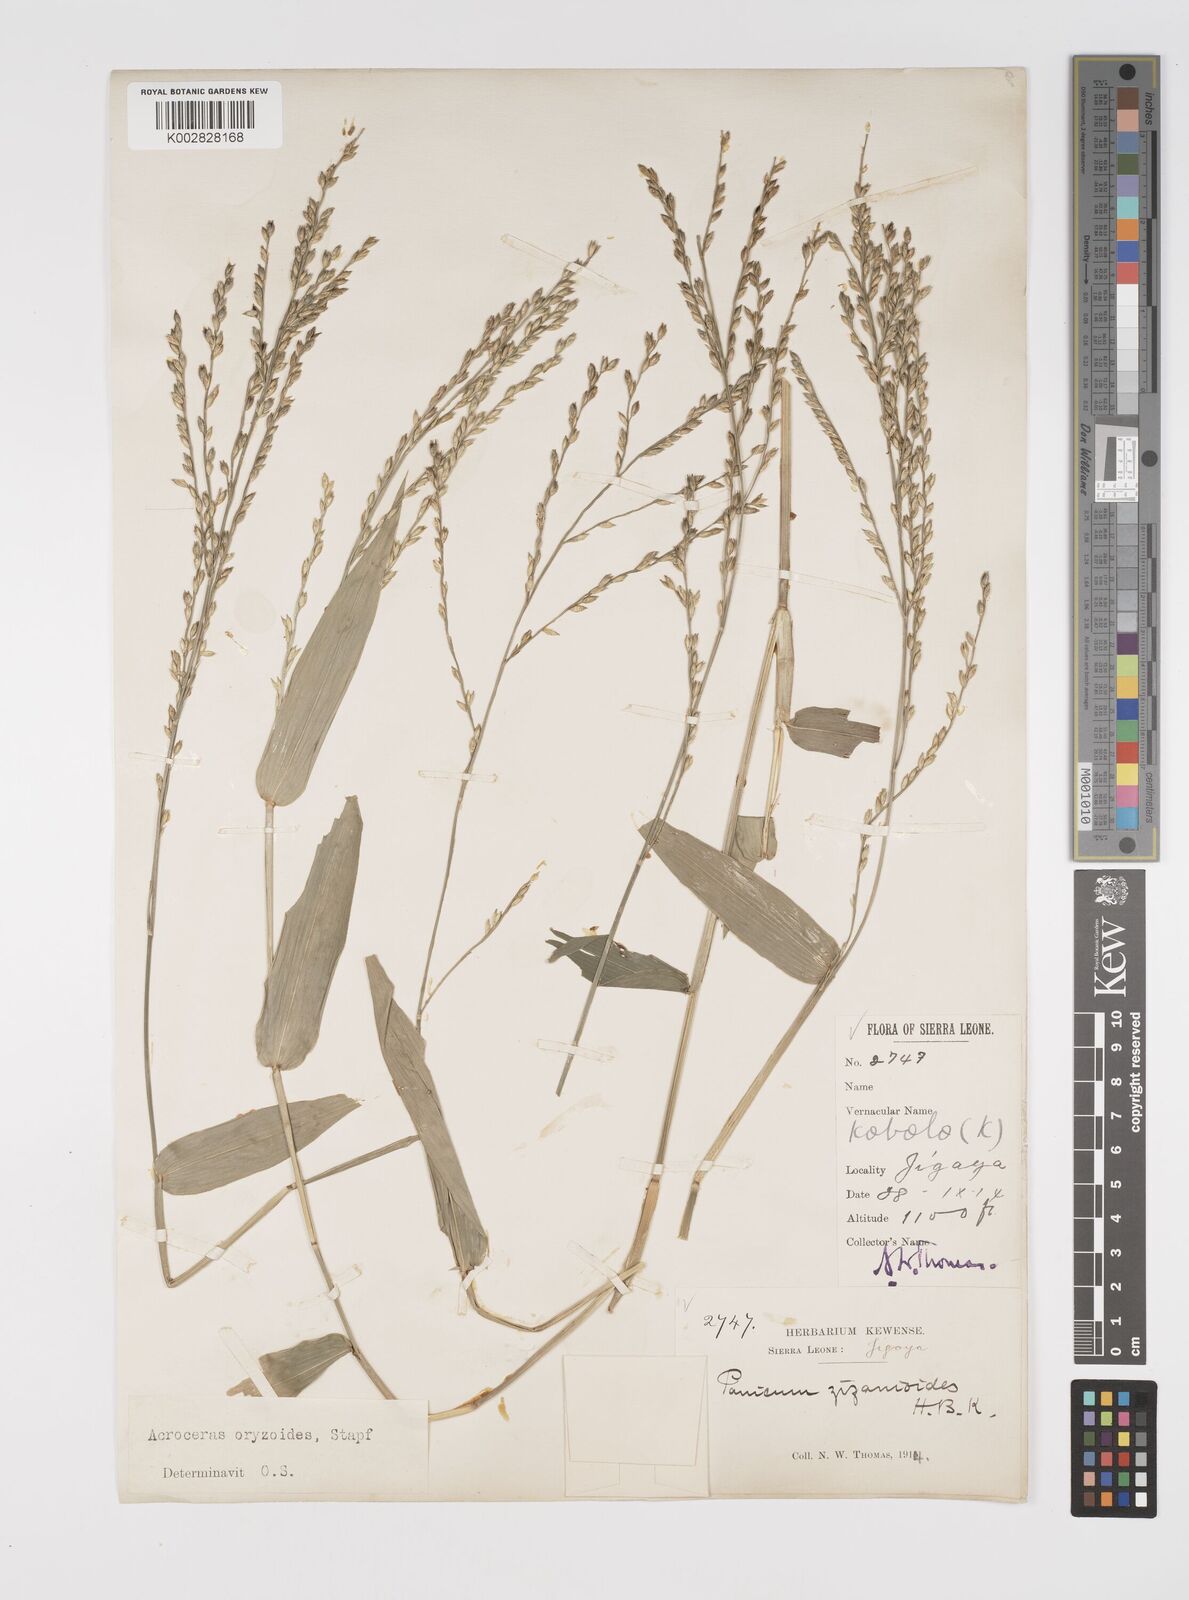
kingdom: Plantae
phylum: Tracheophyta
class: Liliopsida
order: Poales
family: Poaceae
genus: Acroceras
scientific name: Acroceras zizanioides
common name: Oat grass
